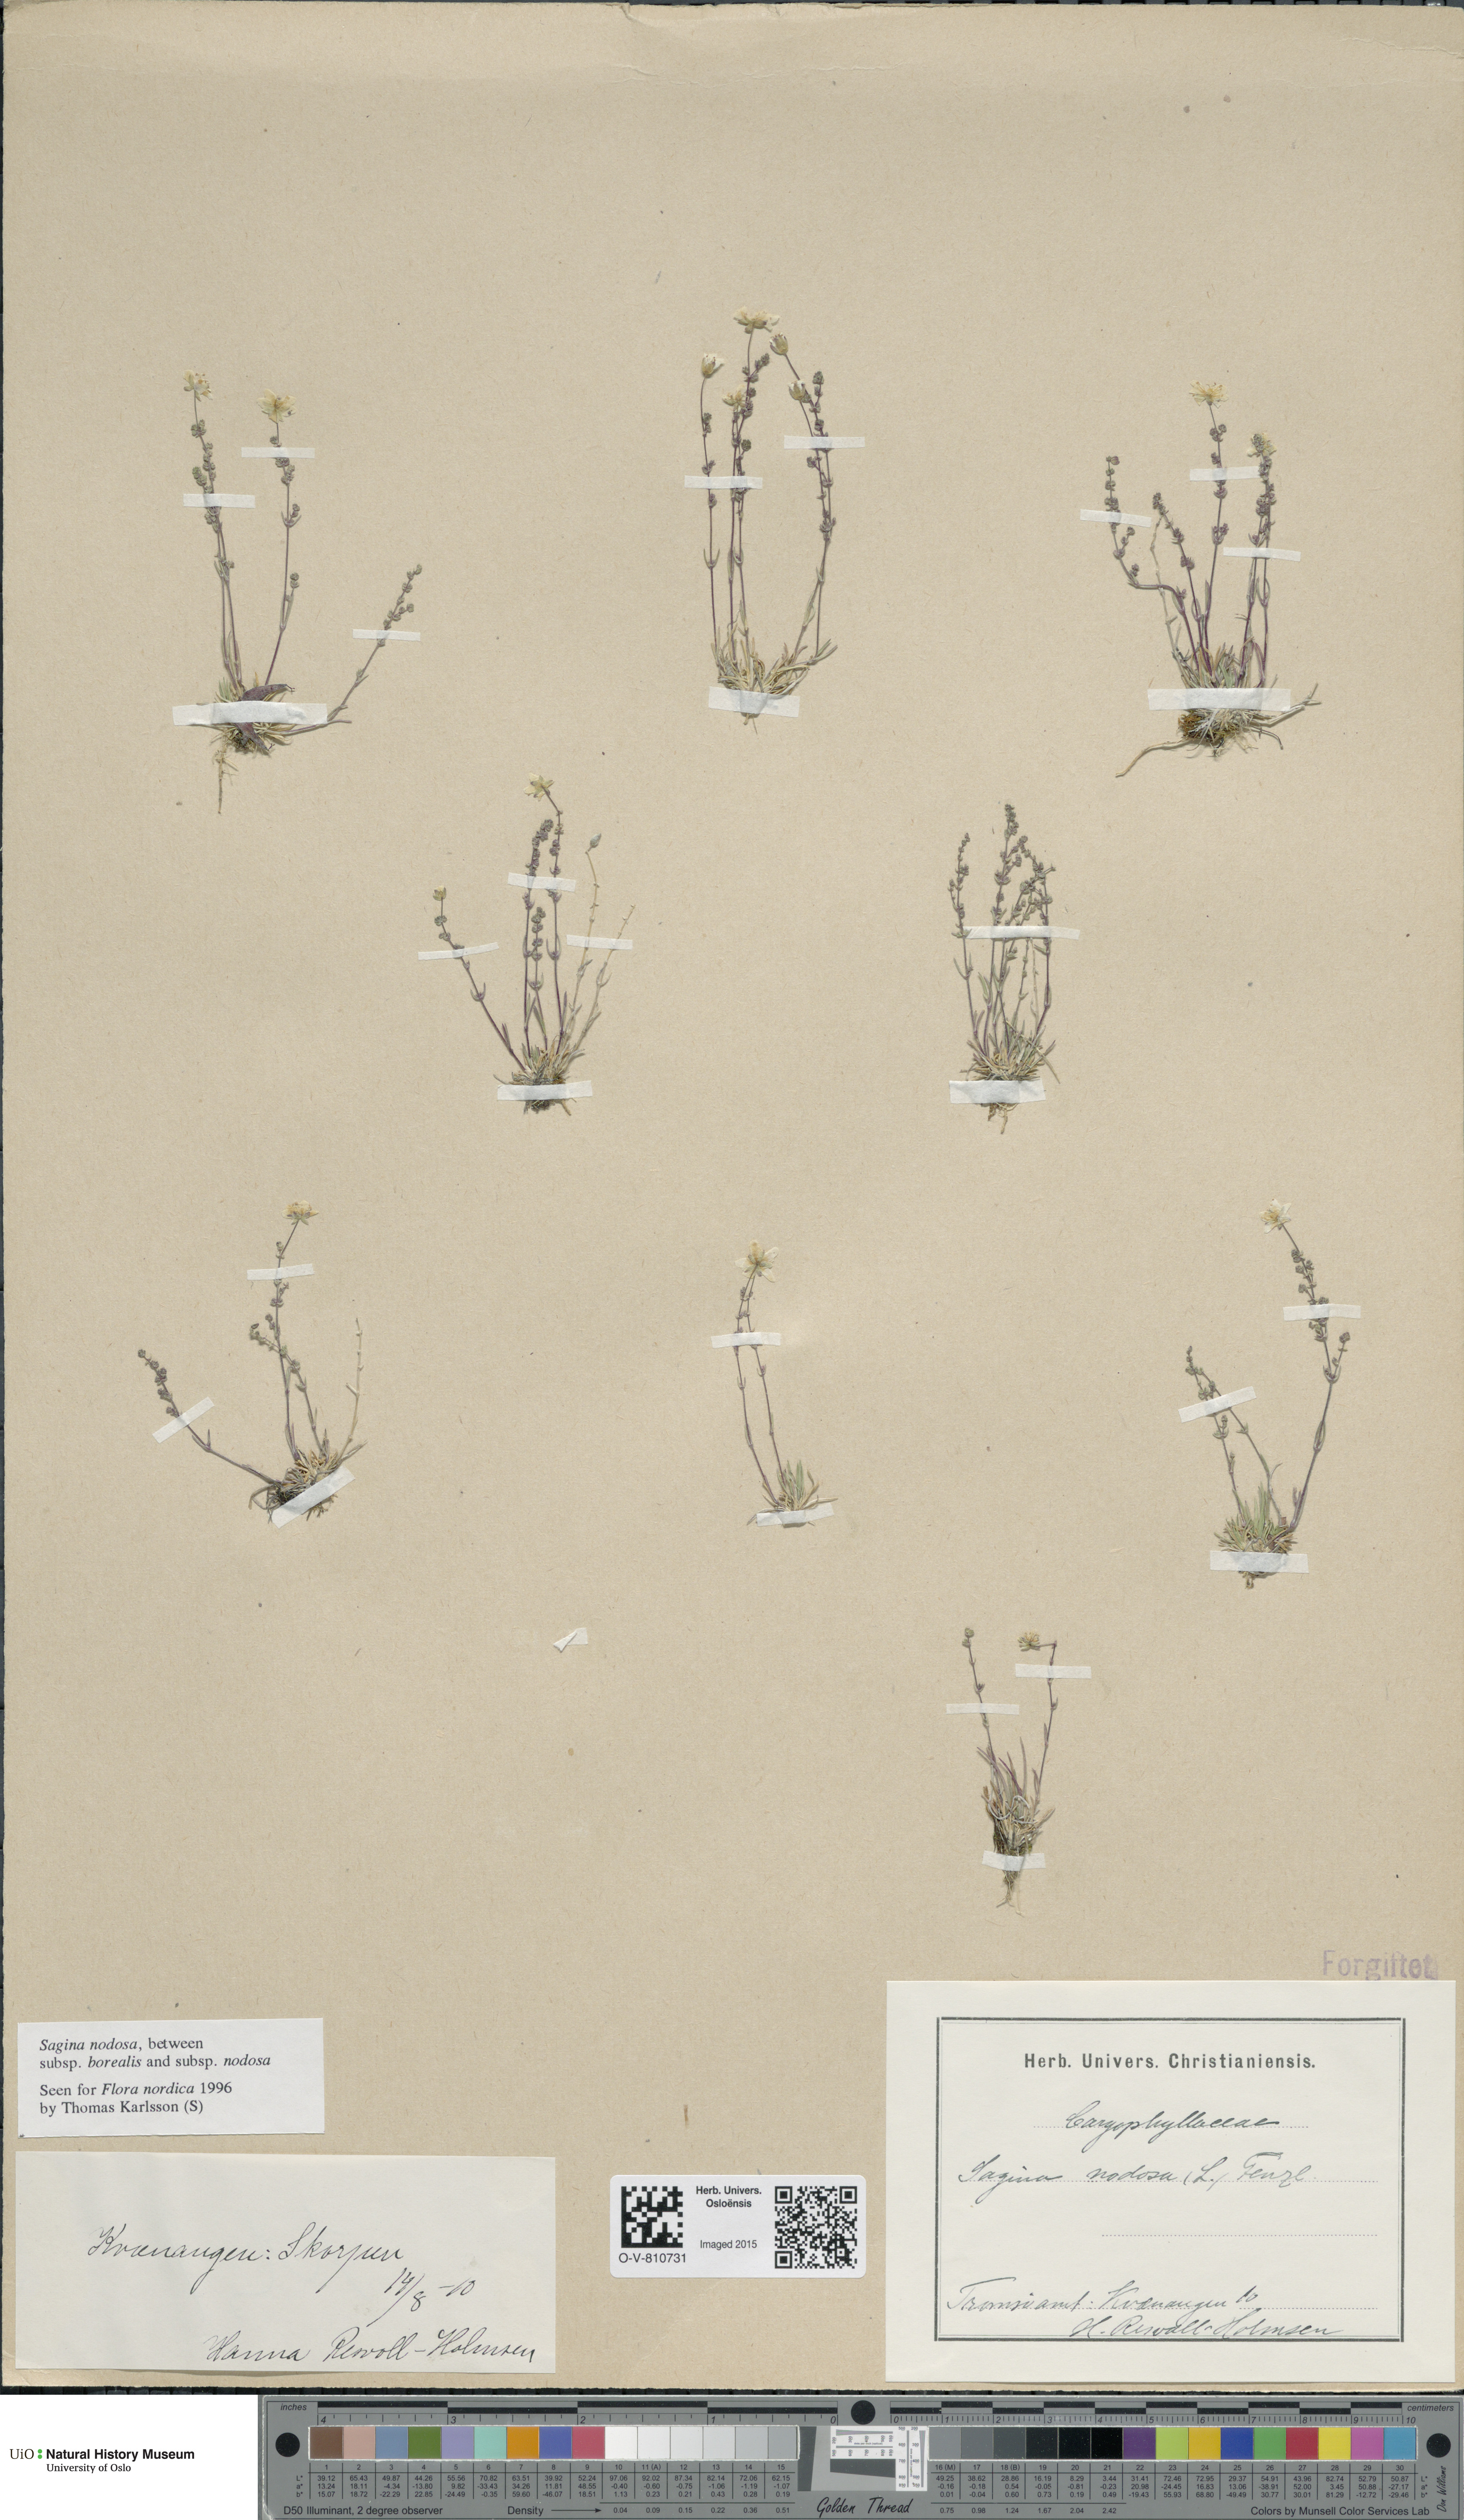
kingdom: Plantae
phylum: Tracheophyta
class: Magnoliopsida
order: Caryophyllales
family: Caryophyllaceae
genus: Sagina
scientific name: Sagina
